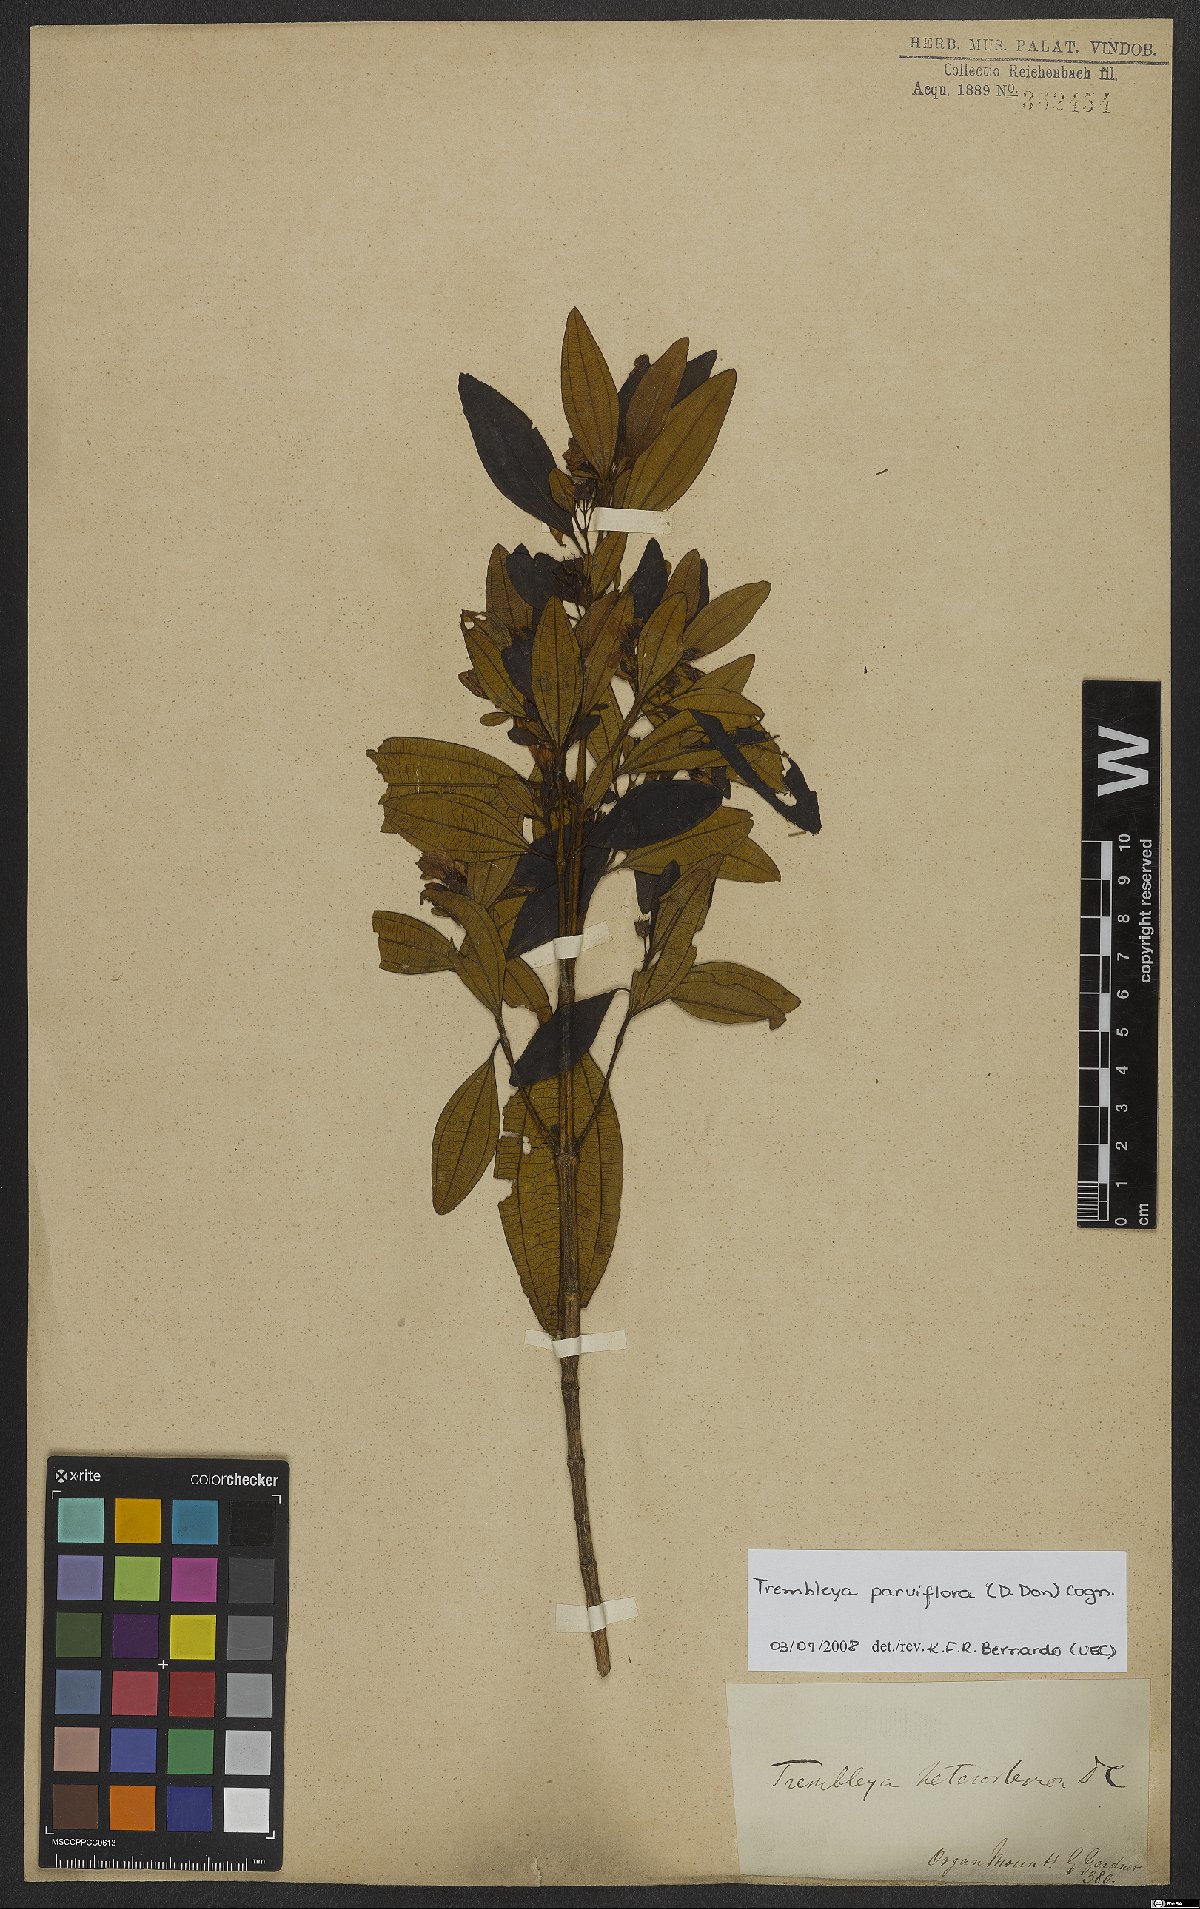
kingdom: Plantae
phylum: Tracheophyta
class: Magnoliopsida
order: Myrtales
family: Melastomataceae
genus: Microlicia
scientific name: Microlicia parviflora
